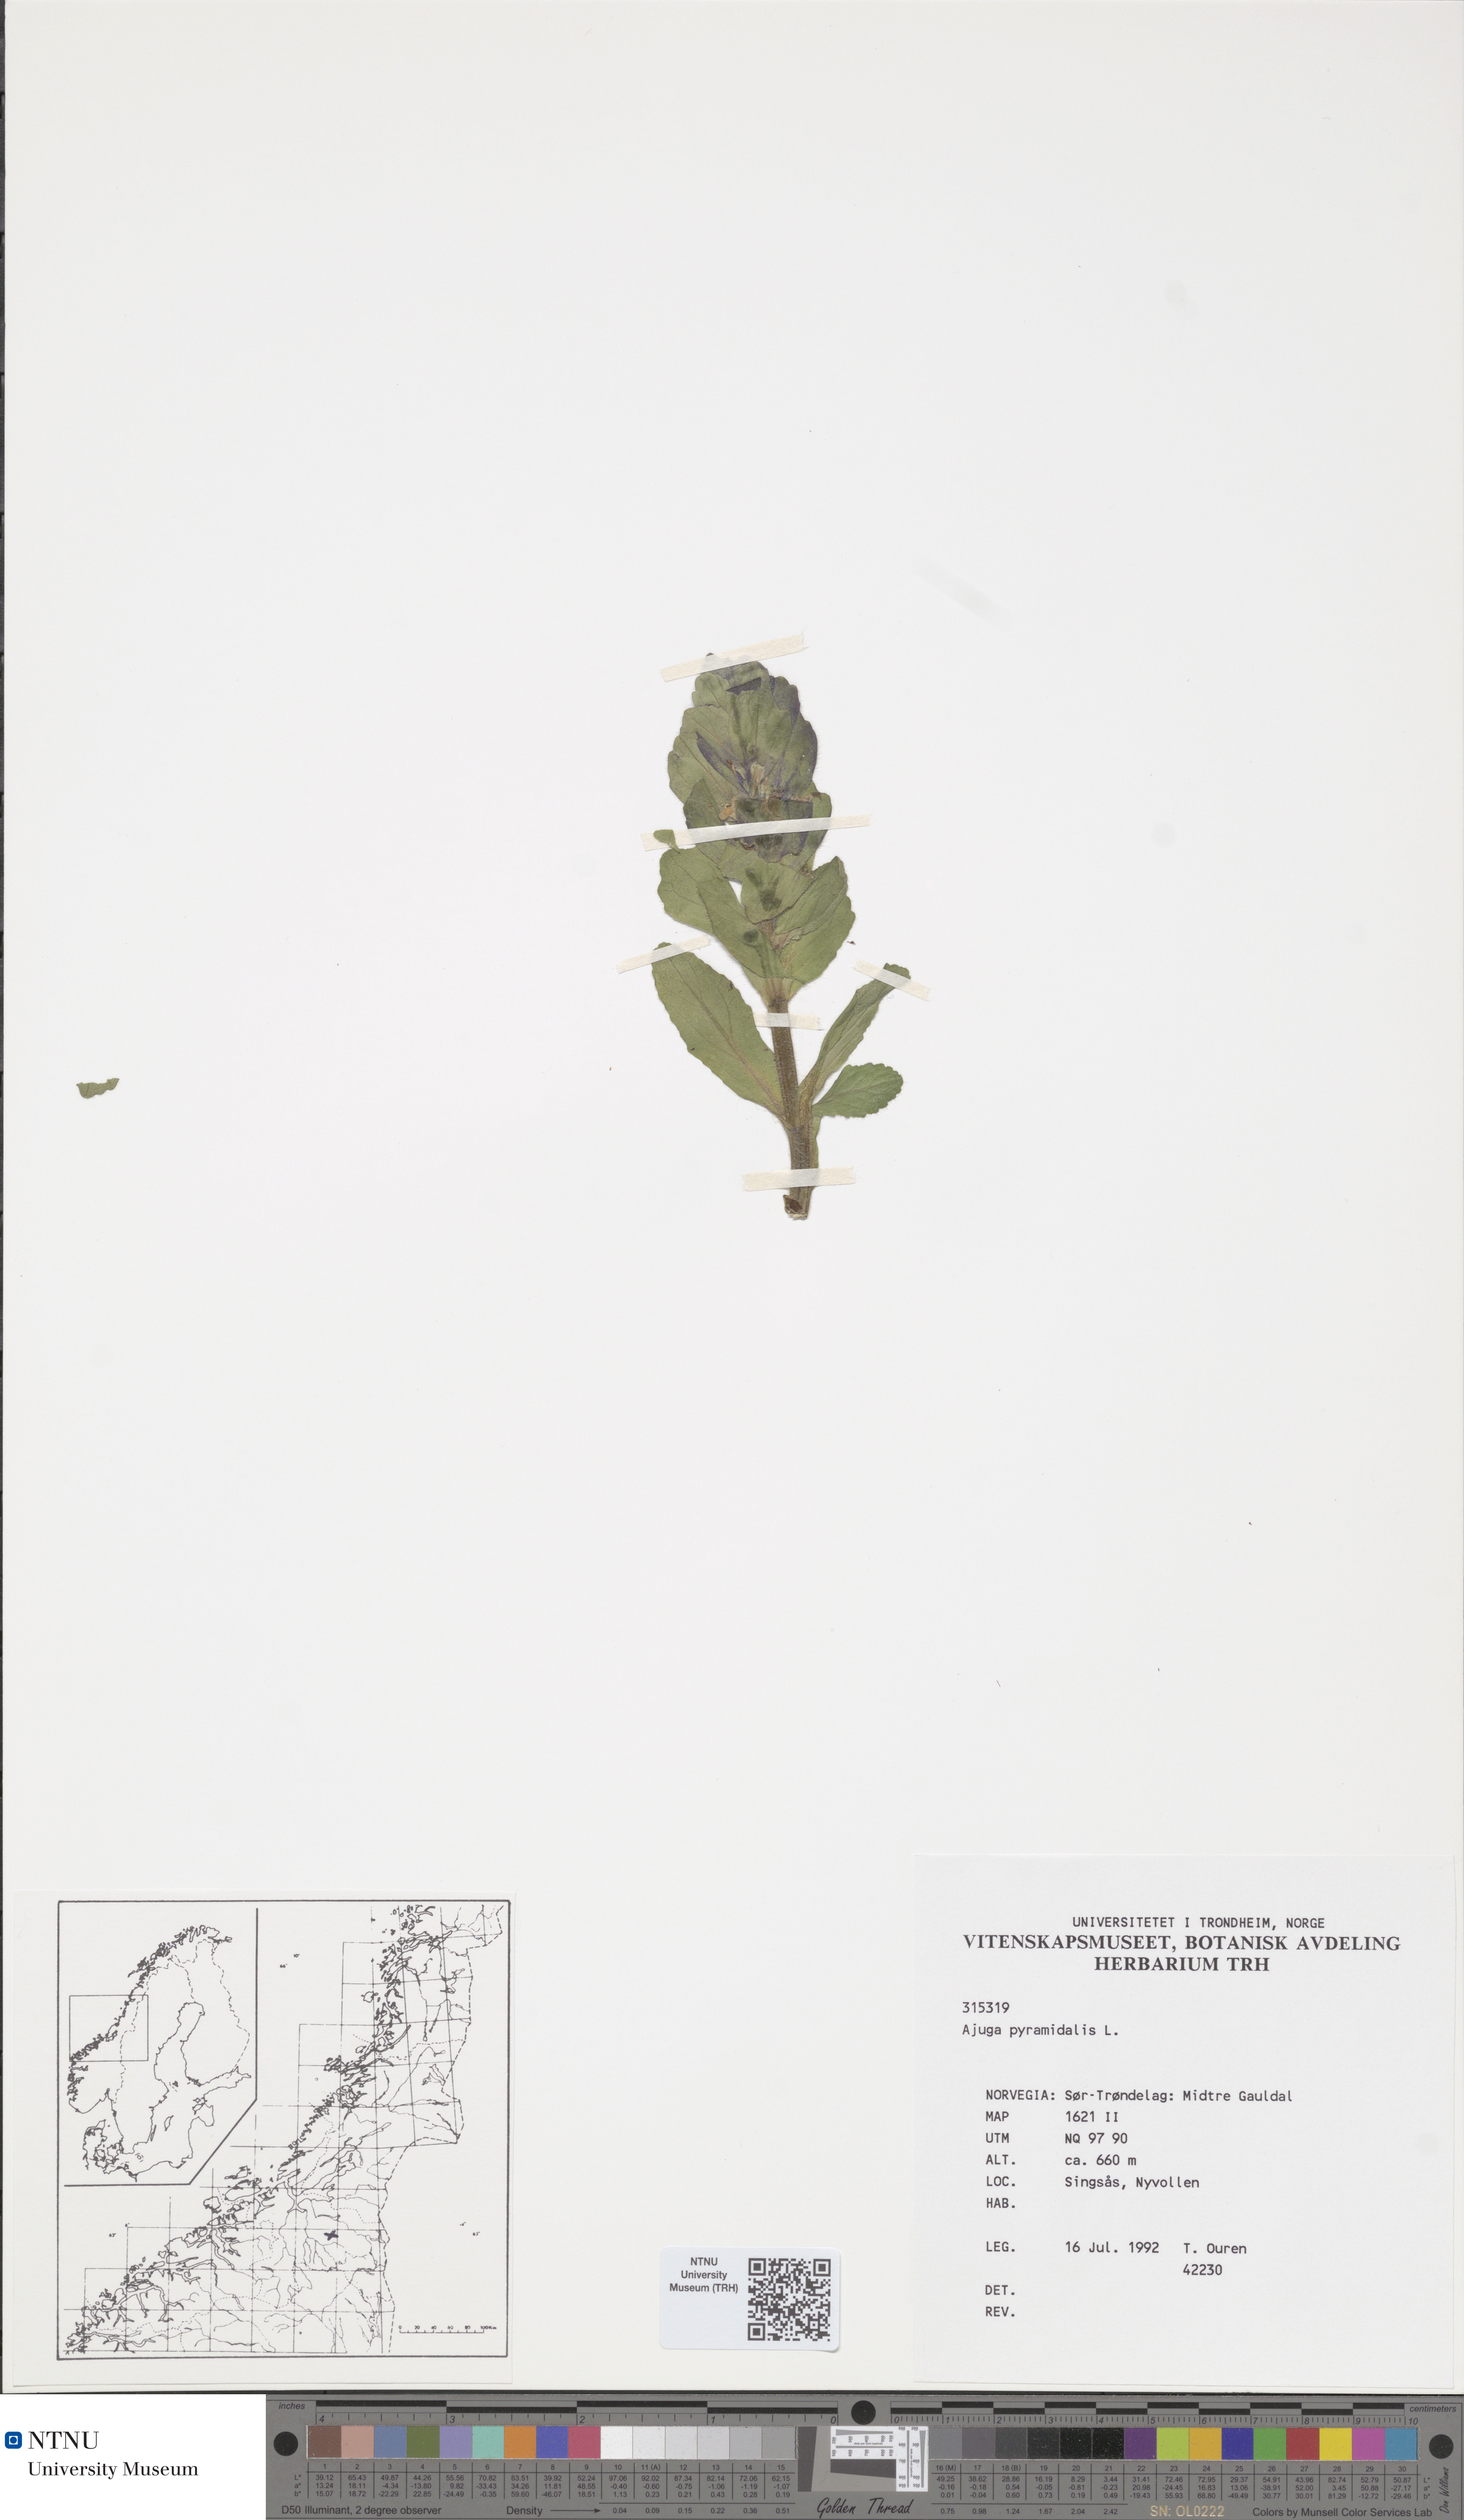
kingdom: Plantae
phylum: Tracheophyta
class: Magnoliopsida
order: Lamiales
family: Lamiaceae
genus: Ajuga
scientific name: Ajuga pyramidalis
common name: Pyramid bugle
